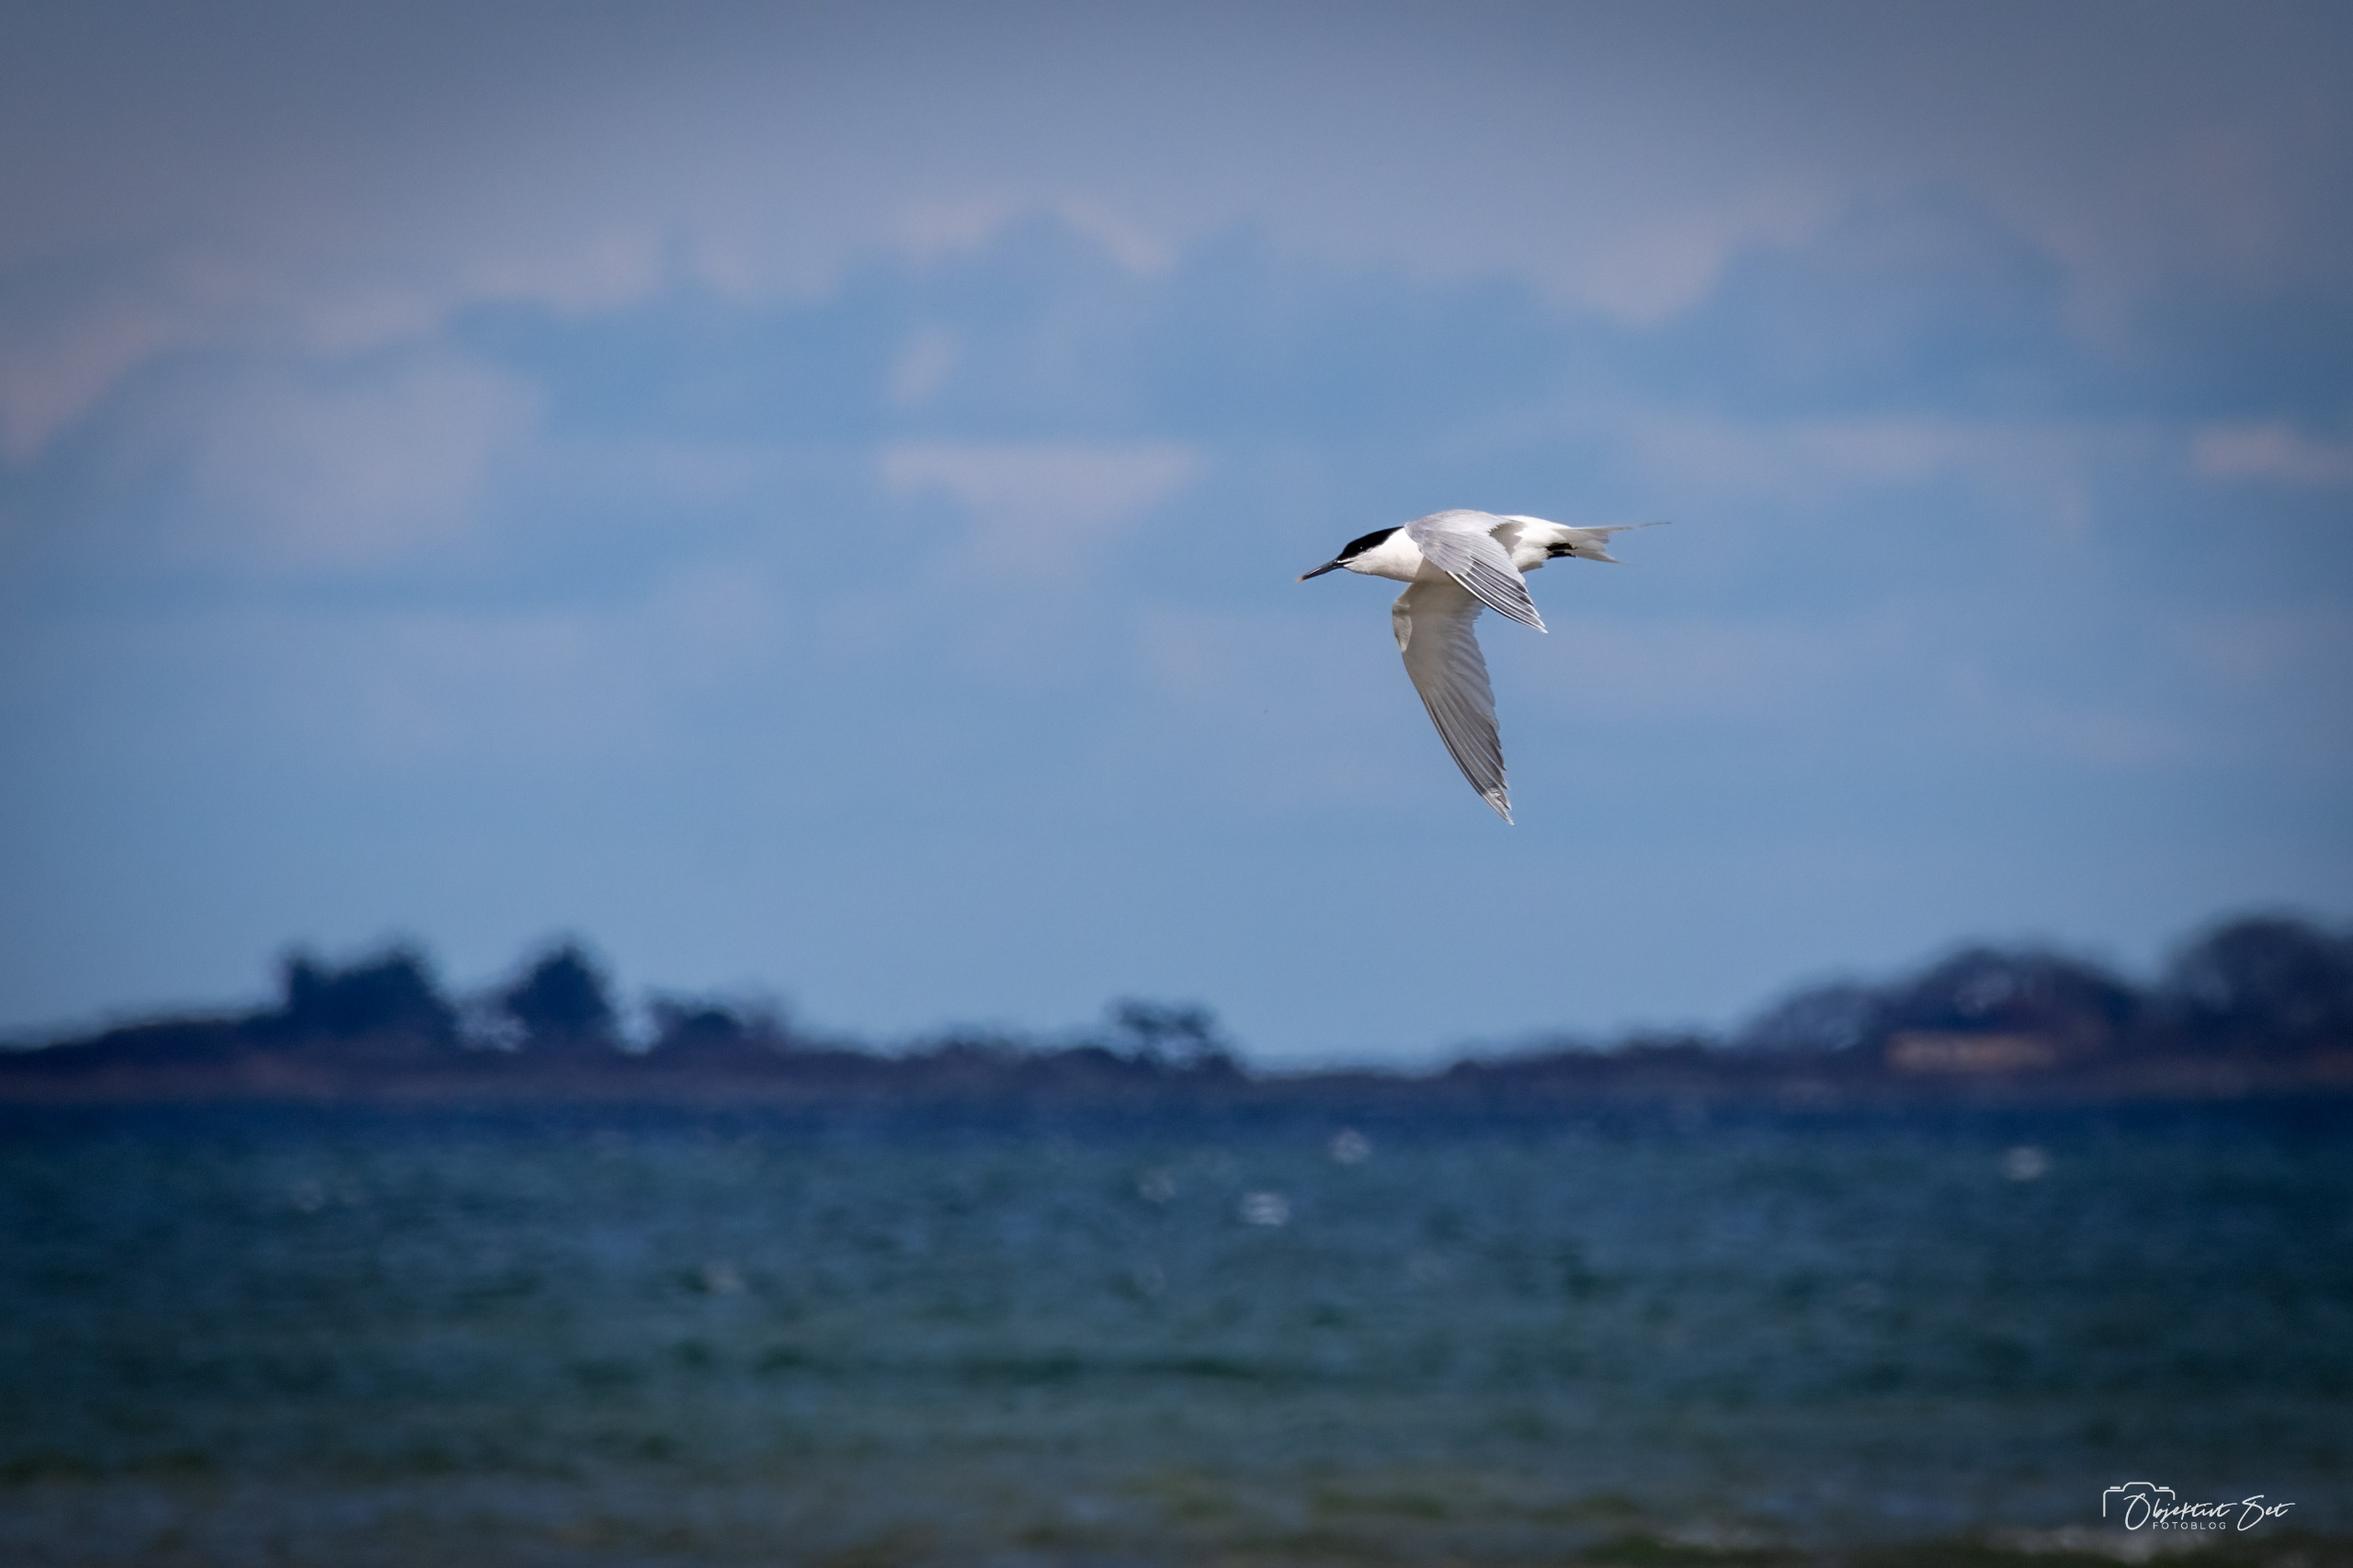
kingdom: Animalia
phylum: Chordata
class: Aves
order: Charadriiformes
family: Laridae
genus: Thalasseus
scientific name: Thalasseus sandvicensis
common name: Splitterne
